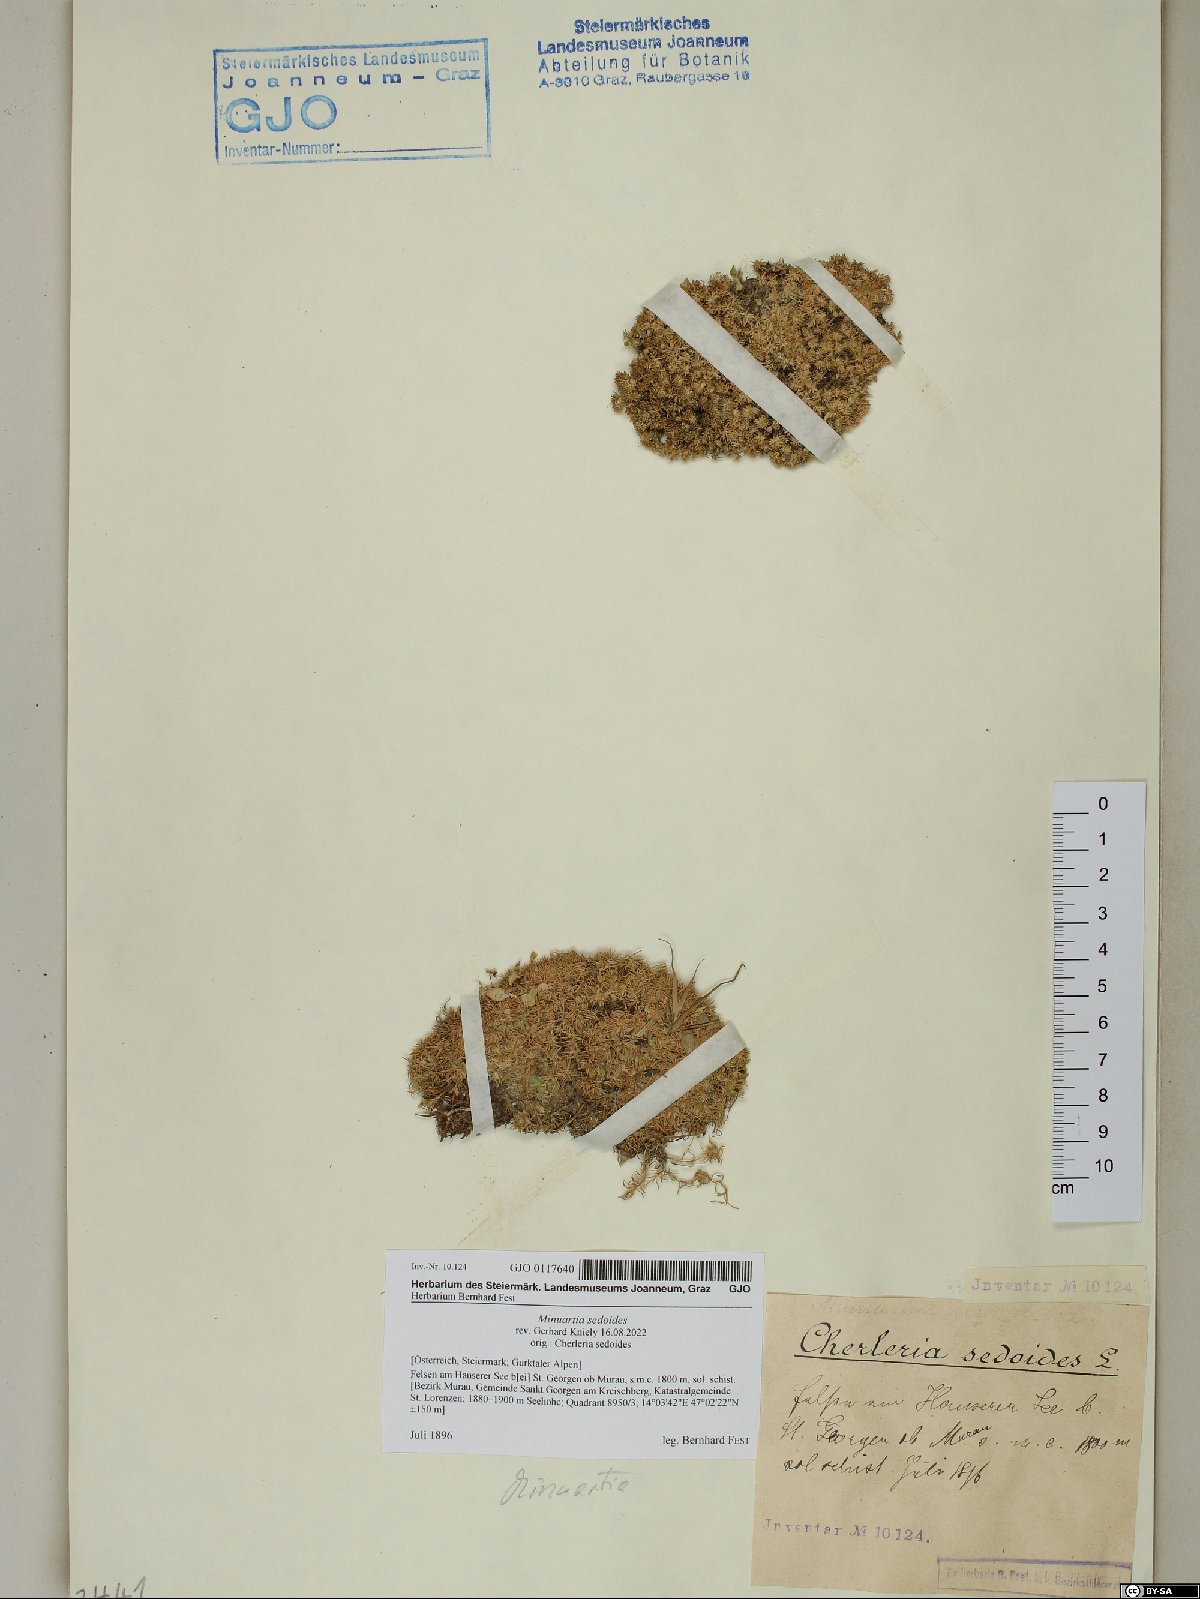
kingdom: Plantae
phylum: Tracheophyta
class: Magnoliopsida
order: Caryophyllales
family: Caryophyllaceae
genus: Cherleria
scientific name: Cherleria sedoides
